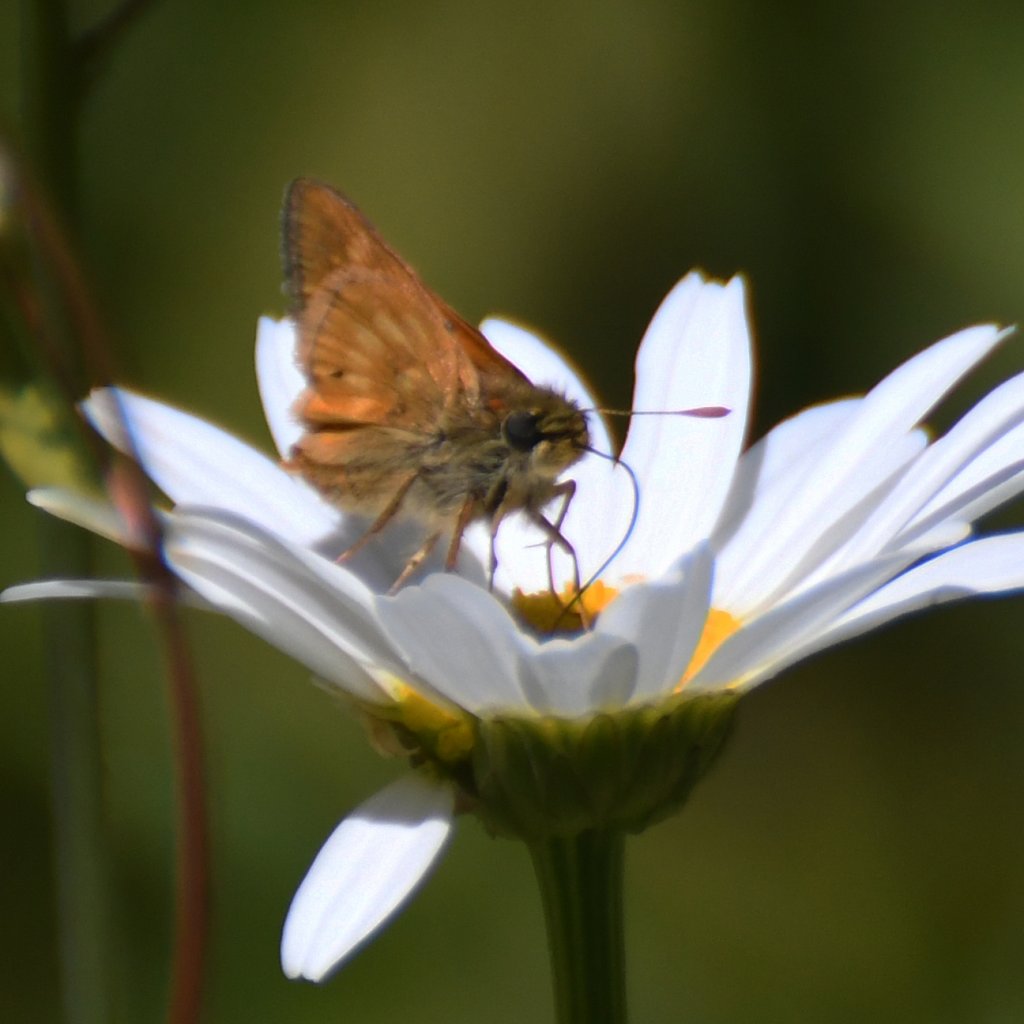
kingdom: Animalia
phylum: Arthropoda
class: Insecta
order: Lepidoptera
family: Hesperiidae
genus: Polites
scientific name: Polites
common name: Long Dash Skipper
